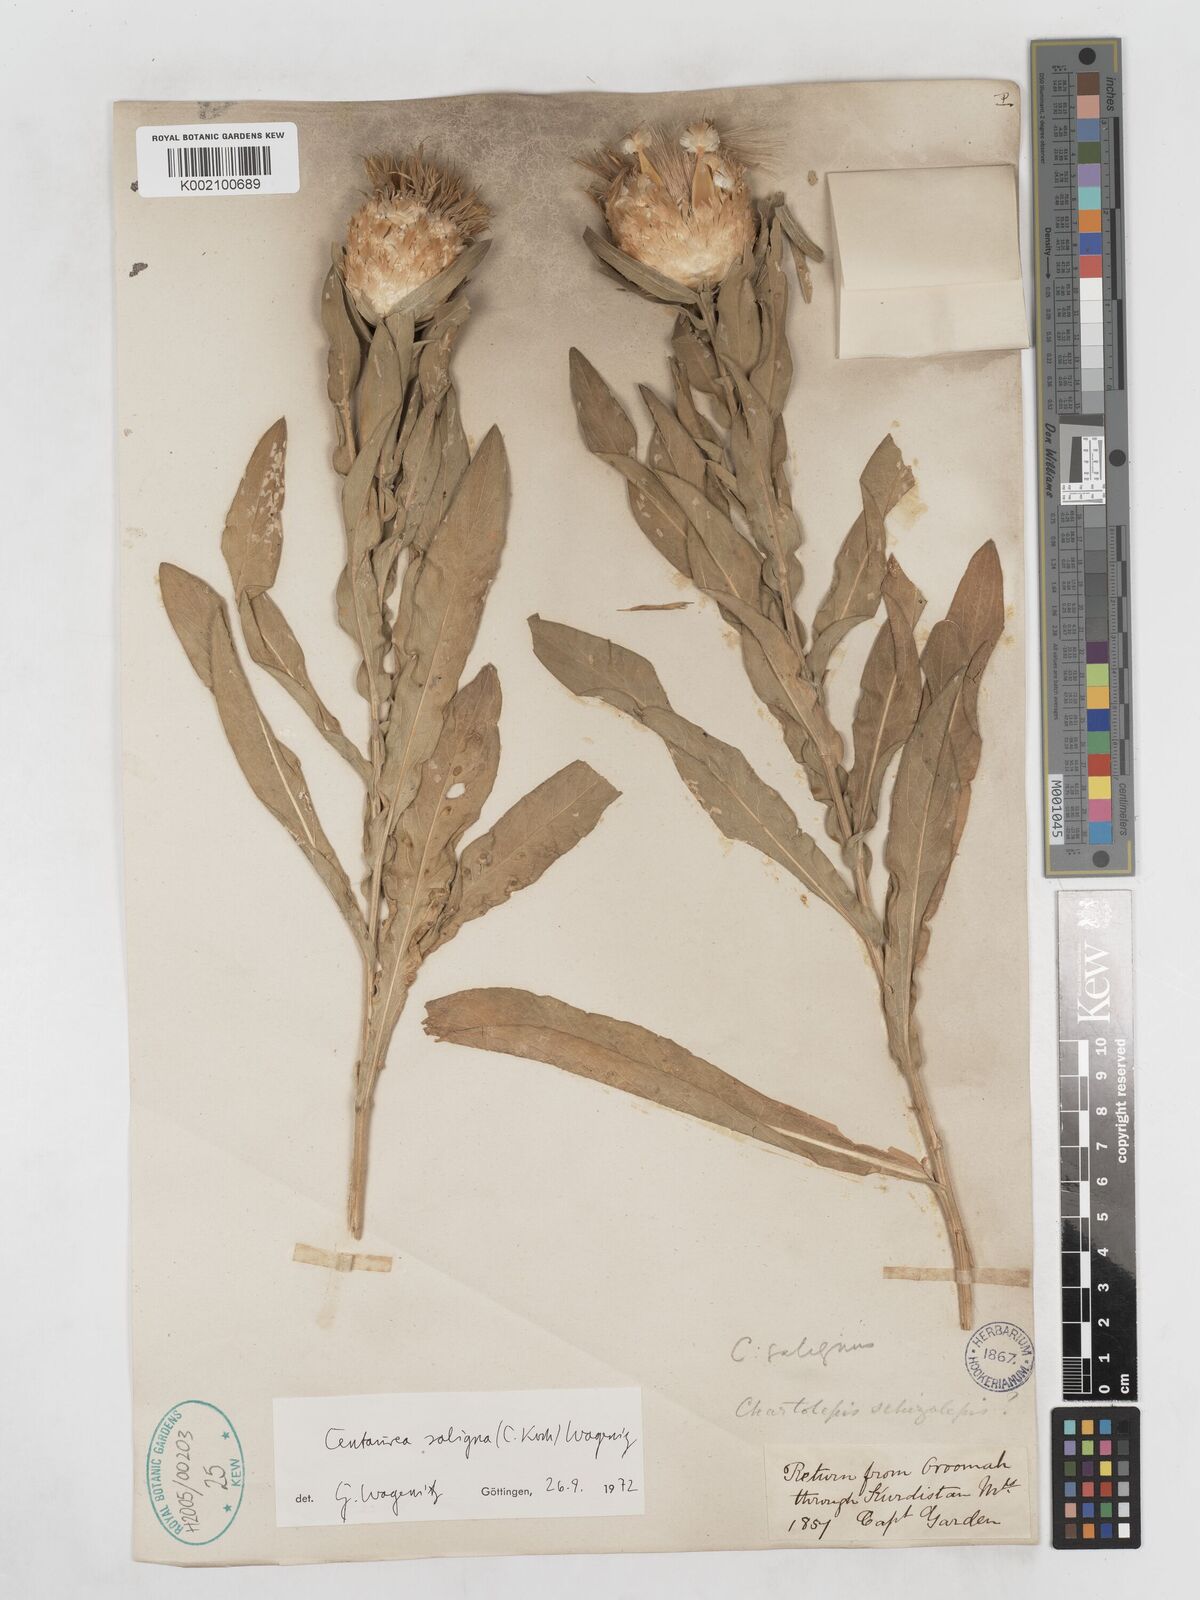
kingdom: Plantae
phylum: Tracheophyta
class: Magnoliopsida
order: Asterales
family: Asteraceae
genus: Centaurea
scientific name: Centaurea saligna
